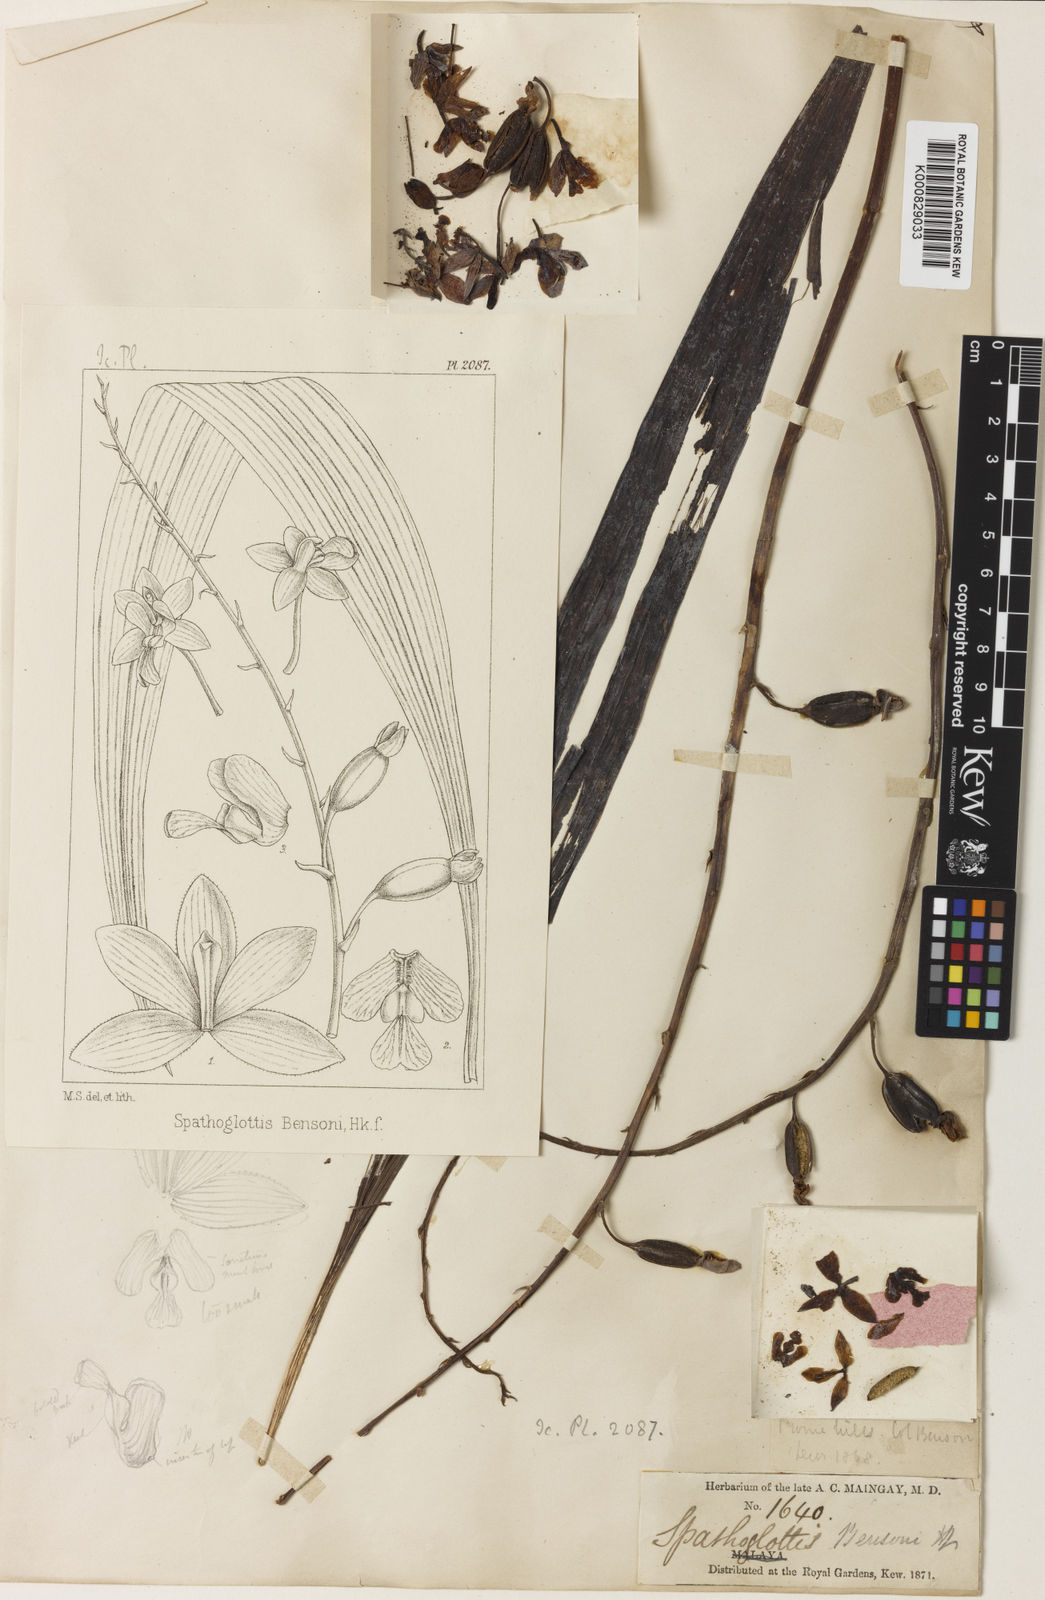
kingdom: Plantae
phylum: Tracheophyta
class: Liliopsida
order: Asparagales
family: Orchidaceae
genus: Spathoglottis
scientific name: Spathoglottis pubescens
